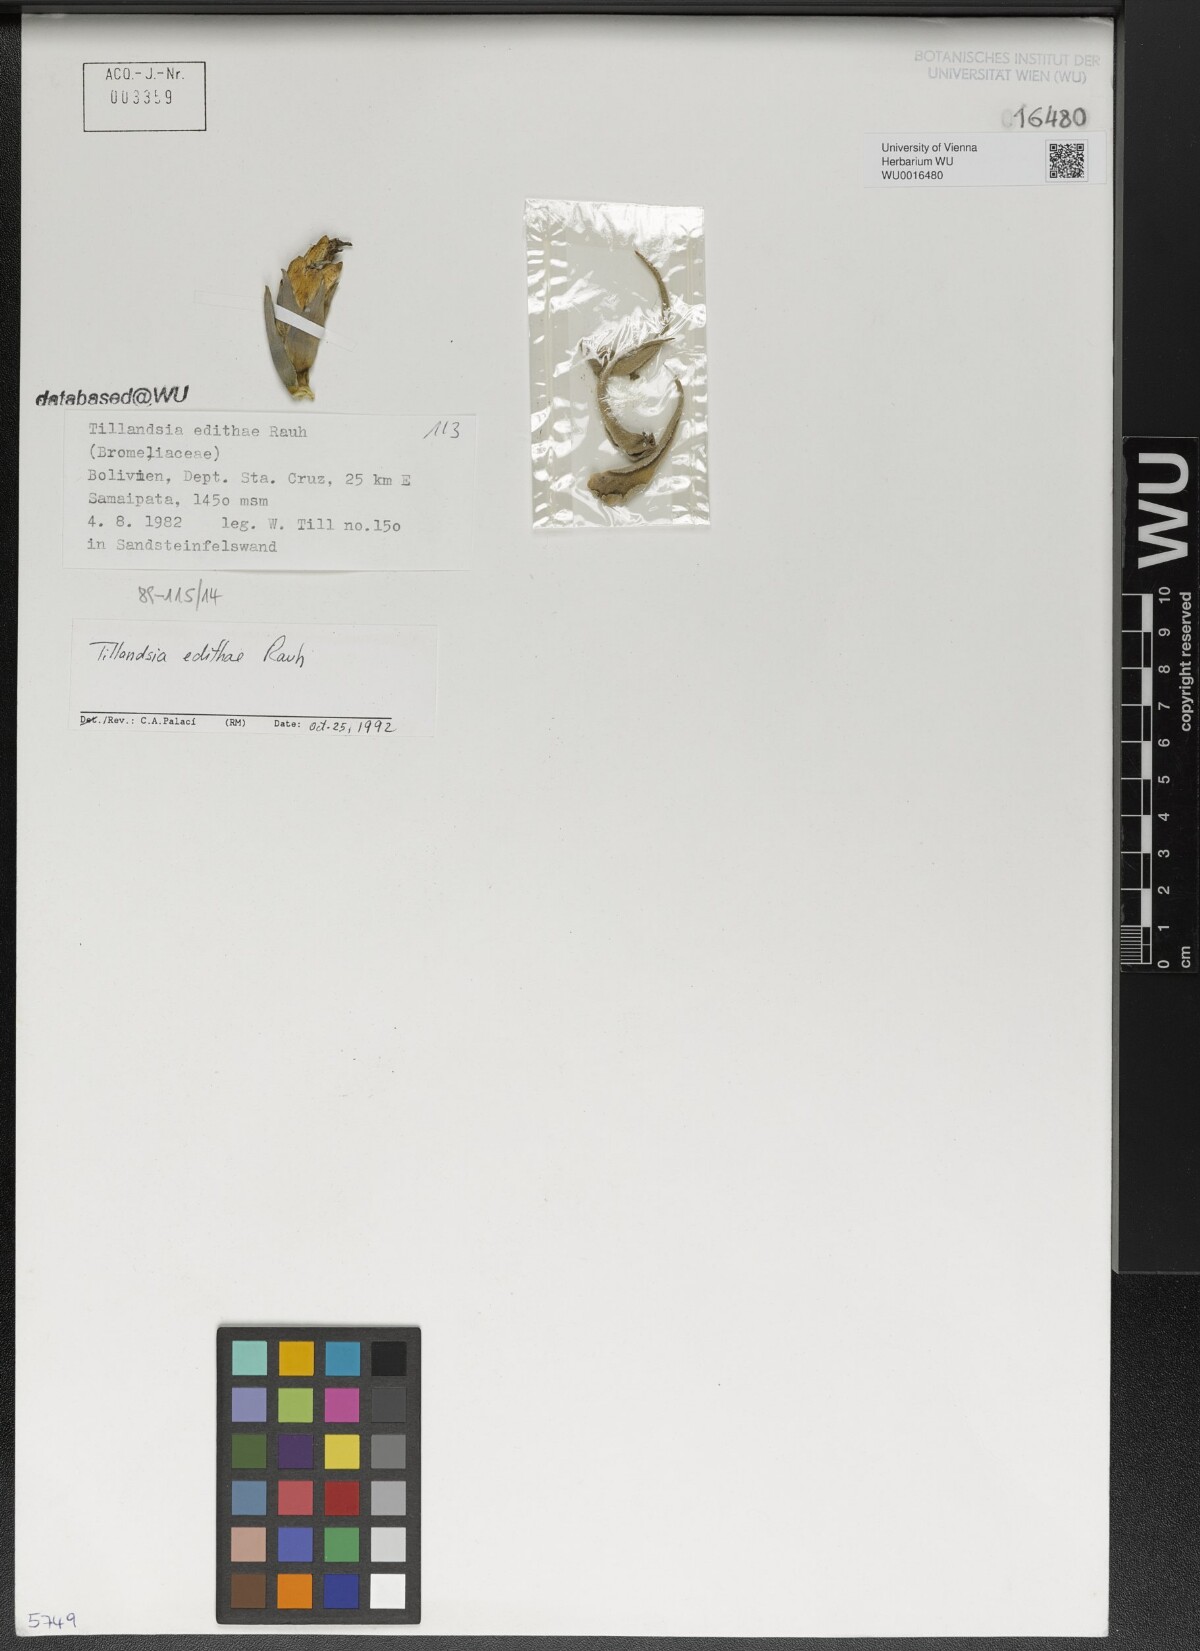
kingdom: Plantae
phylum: Tracheophyta
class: Liliopsida
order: Poales
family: Bromeliaceae
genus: Tillandsia
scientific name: Tillandsia edithae
